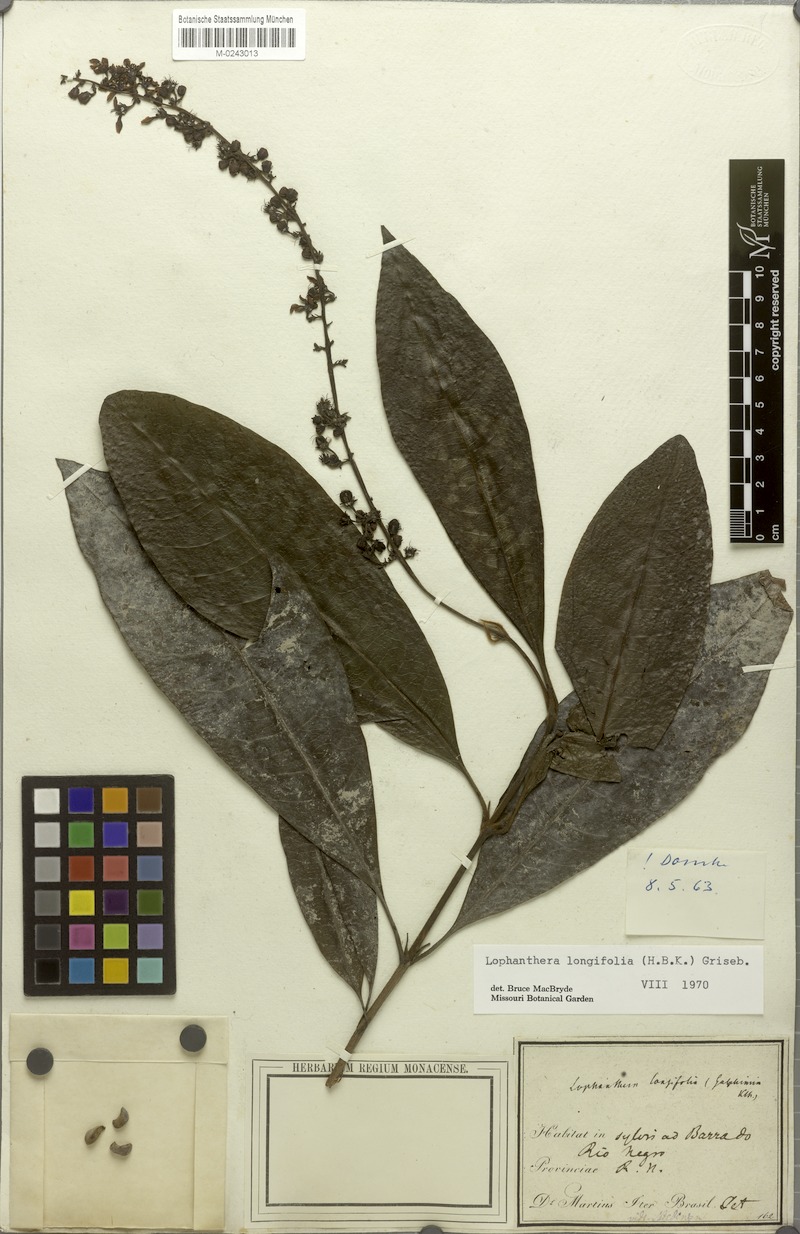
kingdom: Plantae
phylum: Tracheophyta
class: Magnoliopsida
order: Malpighiales
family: Malpighiaceae
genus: Lophanthera
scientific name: Lophanthera longifolia
